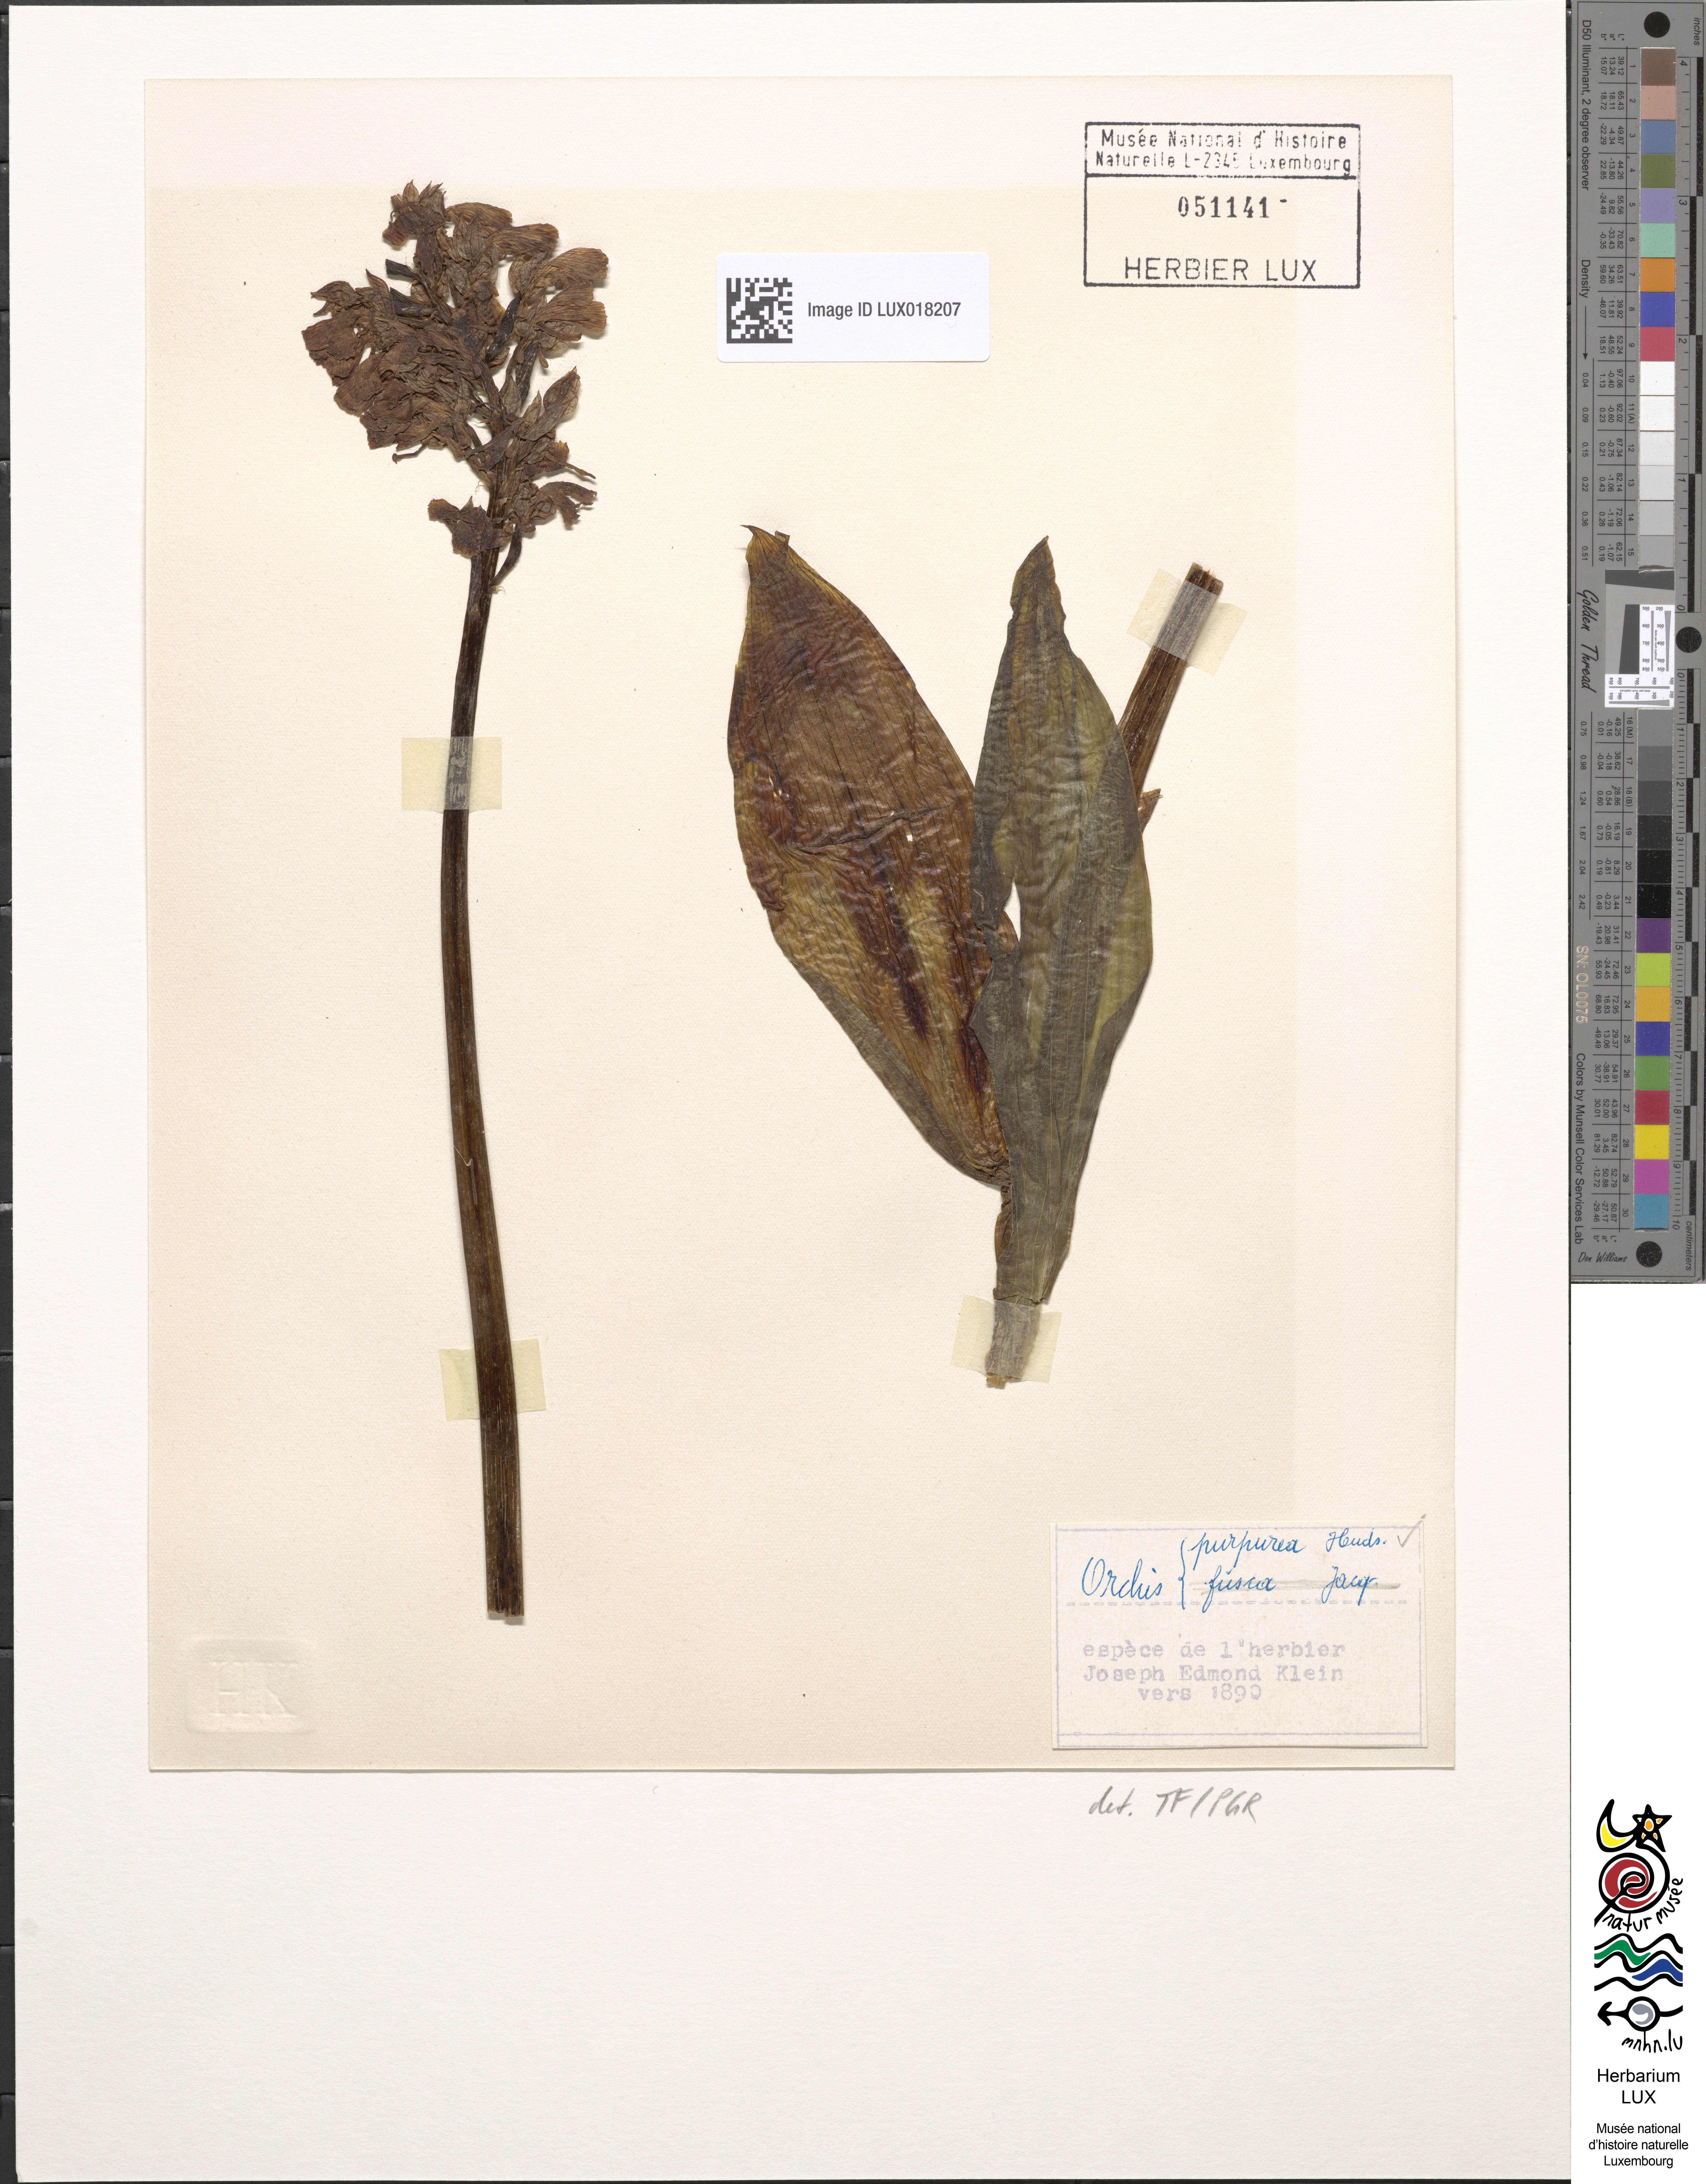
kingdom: Plantae
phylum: Tracheophyta
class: Liliopsida
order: Asparagales
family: Orchidaceae
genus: Orchis
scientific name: Orchis purpurea
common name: Lady orchid
